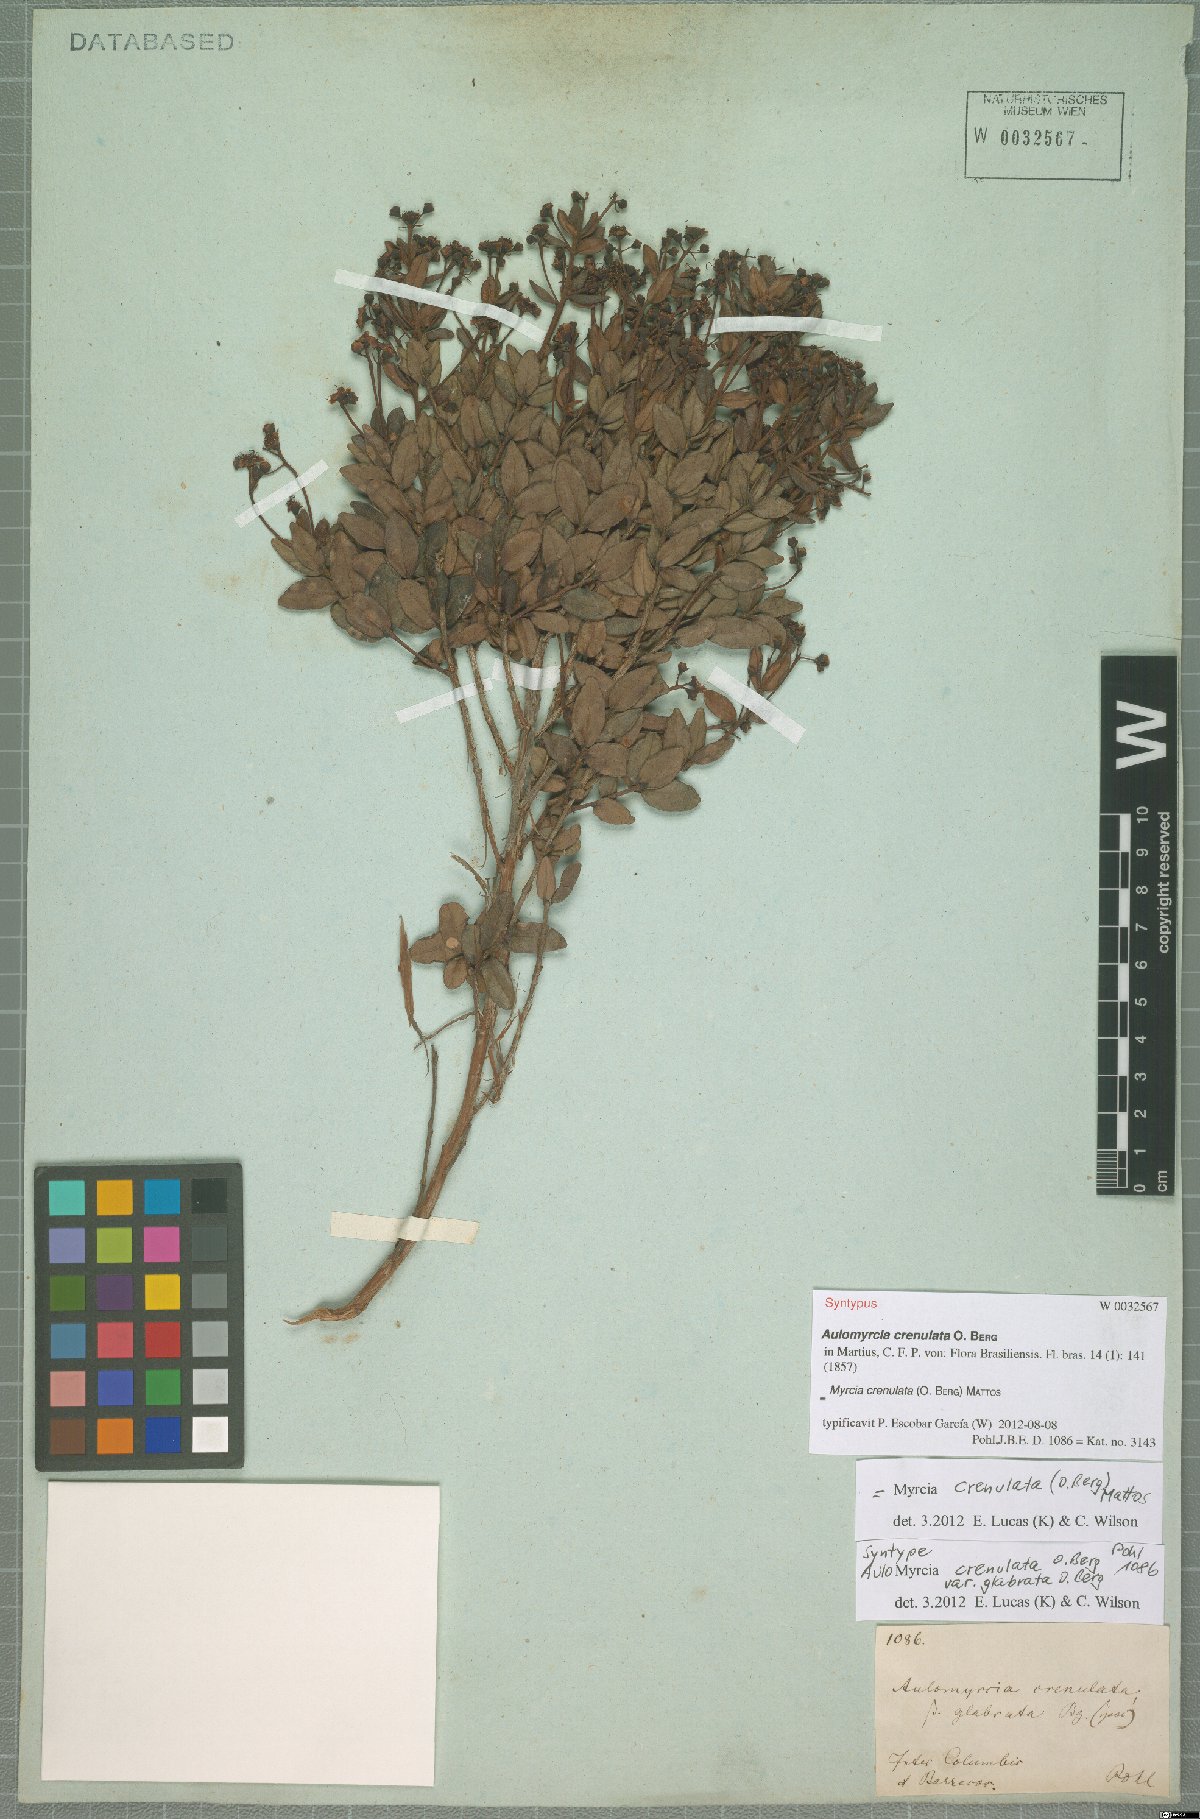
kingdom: Plantae
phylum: Tracheophyta
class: Magnoliopsida
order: Myrtales
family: Myrtaceae
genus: Myrcia
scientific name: Myrcia crenulata
